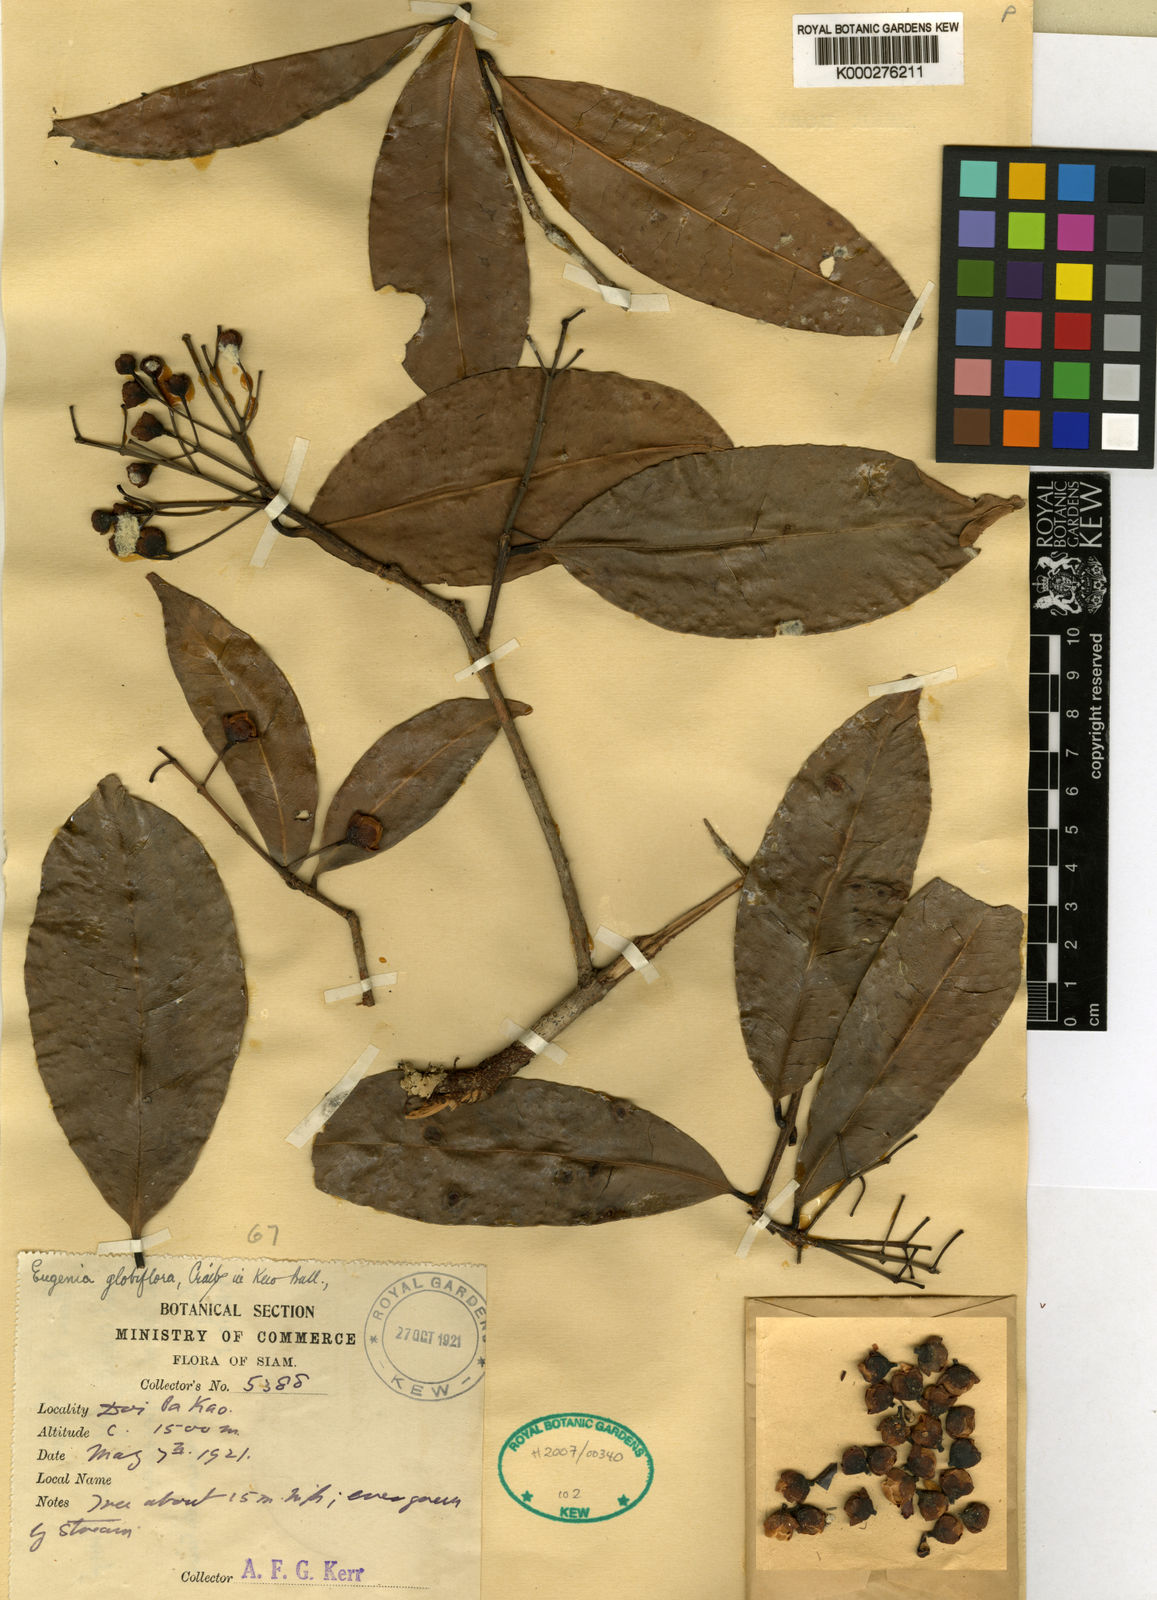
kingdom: Plantae
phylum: Tracheophyta
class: Magnoliopsida
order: Myrtales
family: Myrtaceae
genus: Syzygium
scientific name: Syzygium globiflorum
